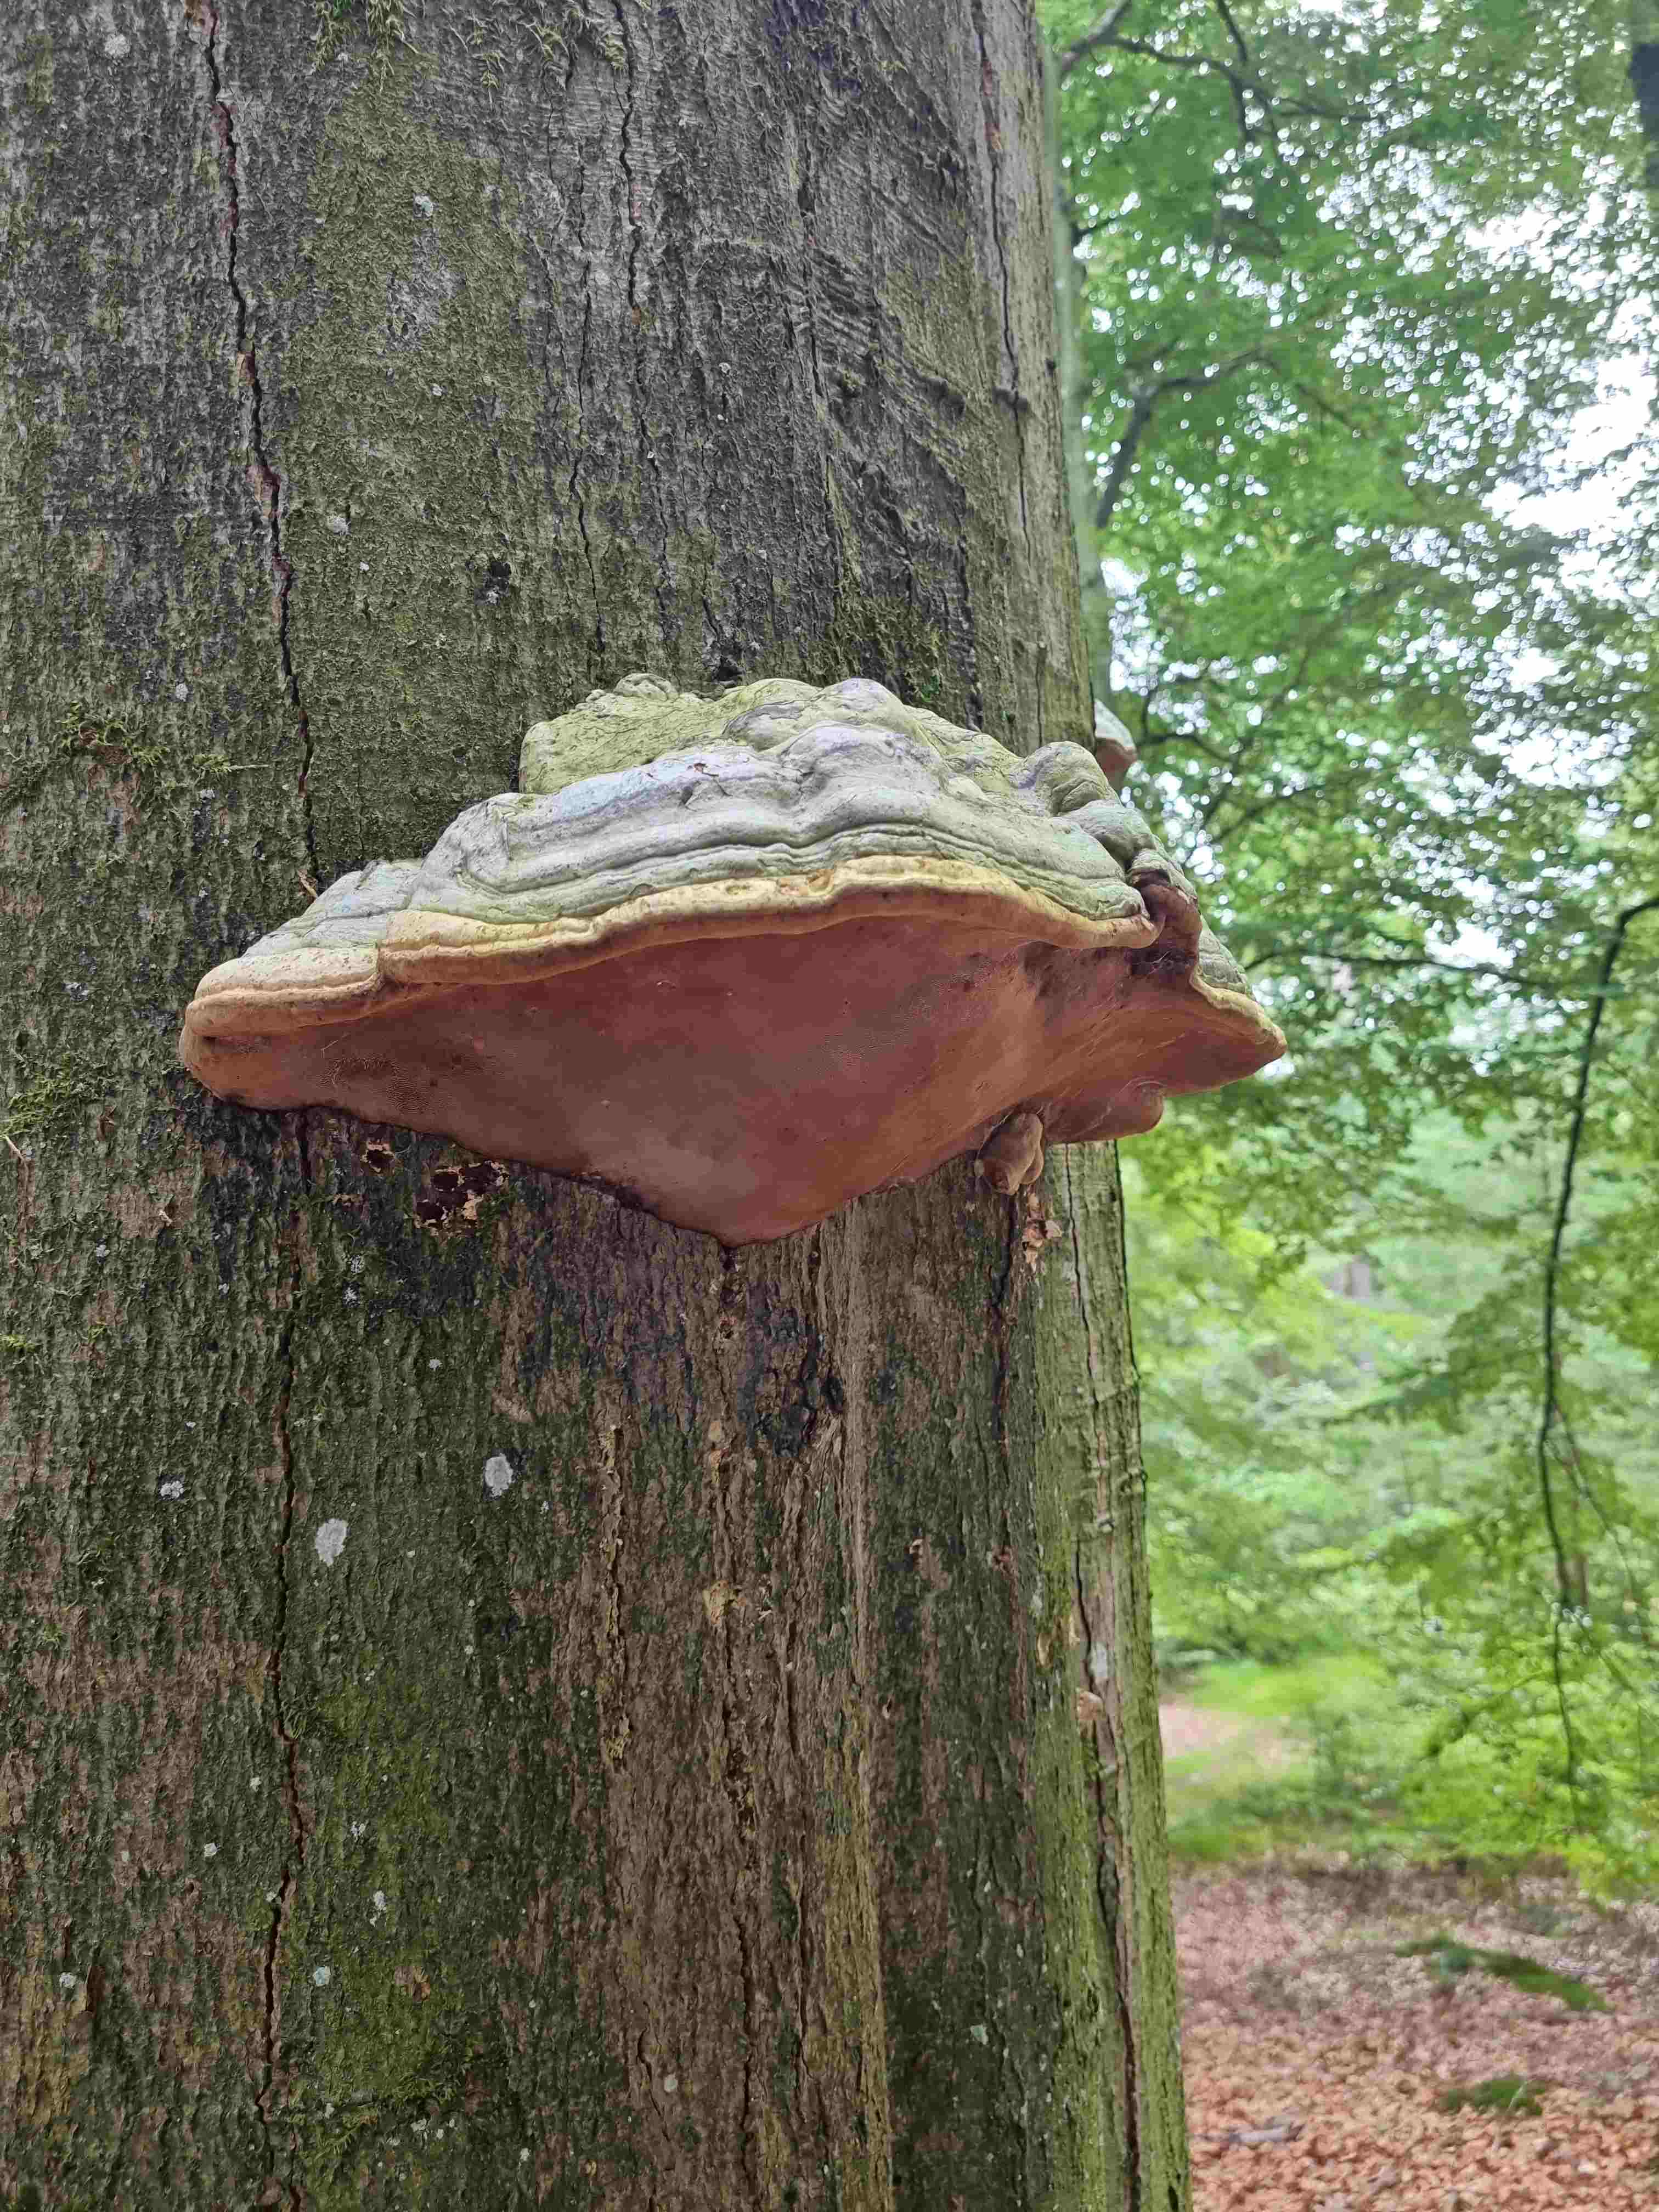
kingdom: Fungi
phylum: Basidiomycota
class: Agaricomycetes
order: Polyporales
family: Polyporaceae
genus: Fomes
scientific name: Fomes fomentarius
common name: tøndersvamp
